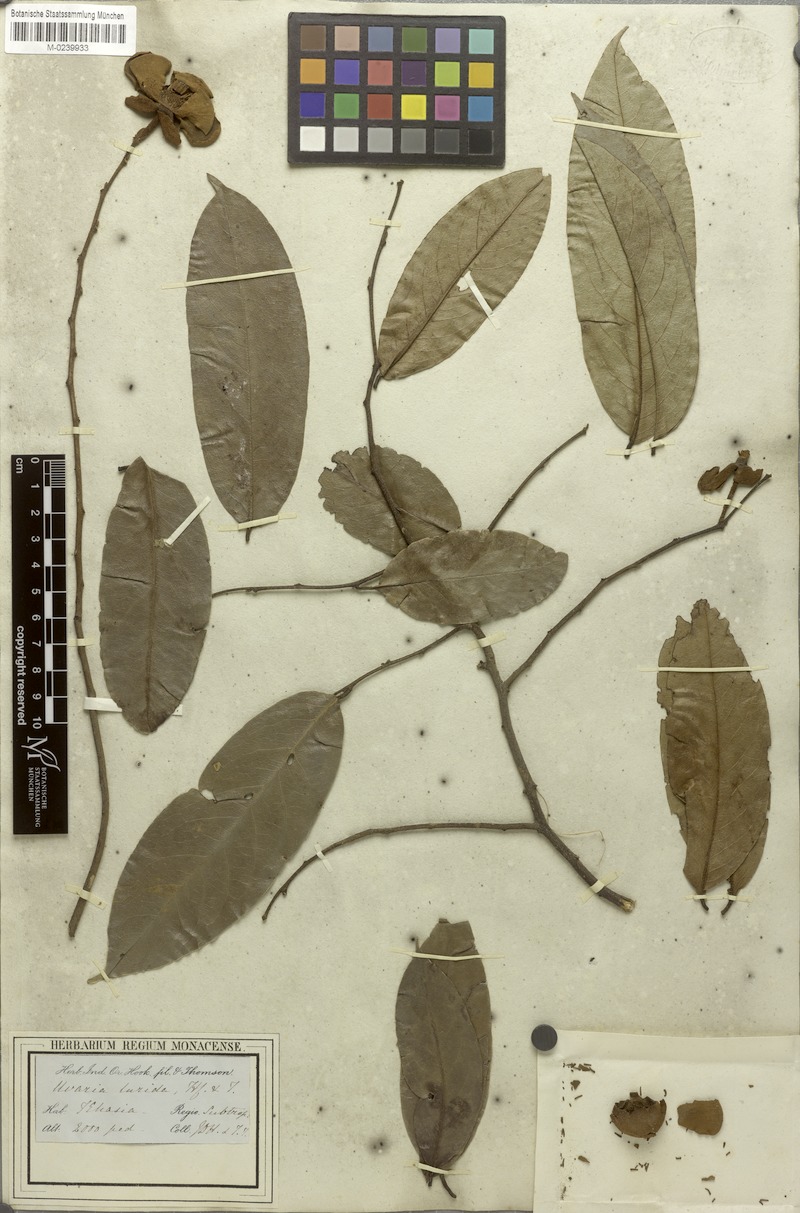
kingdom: Plantae
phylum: Tracheophyta
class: Magnoliopsida
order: Magnoliales
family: Annonaceae
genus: Uvaria
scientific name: Uvaria concava
